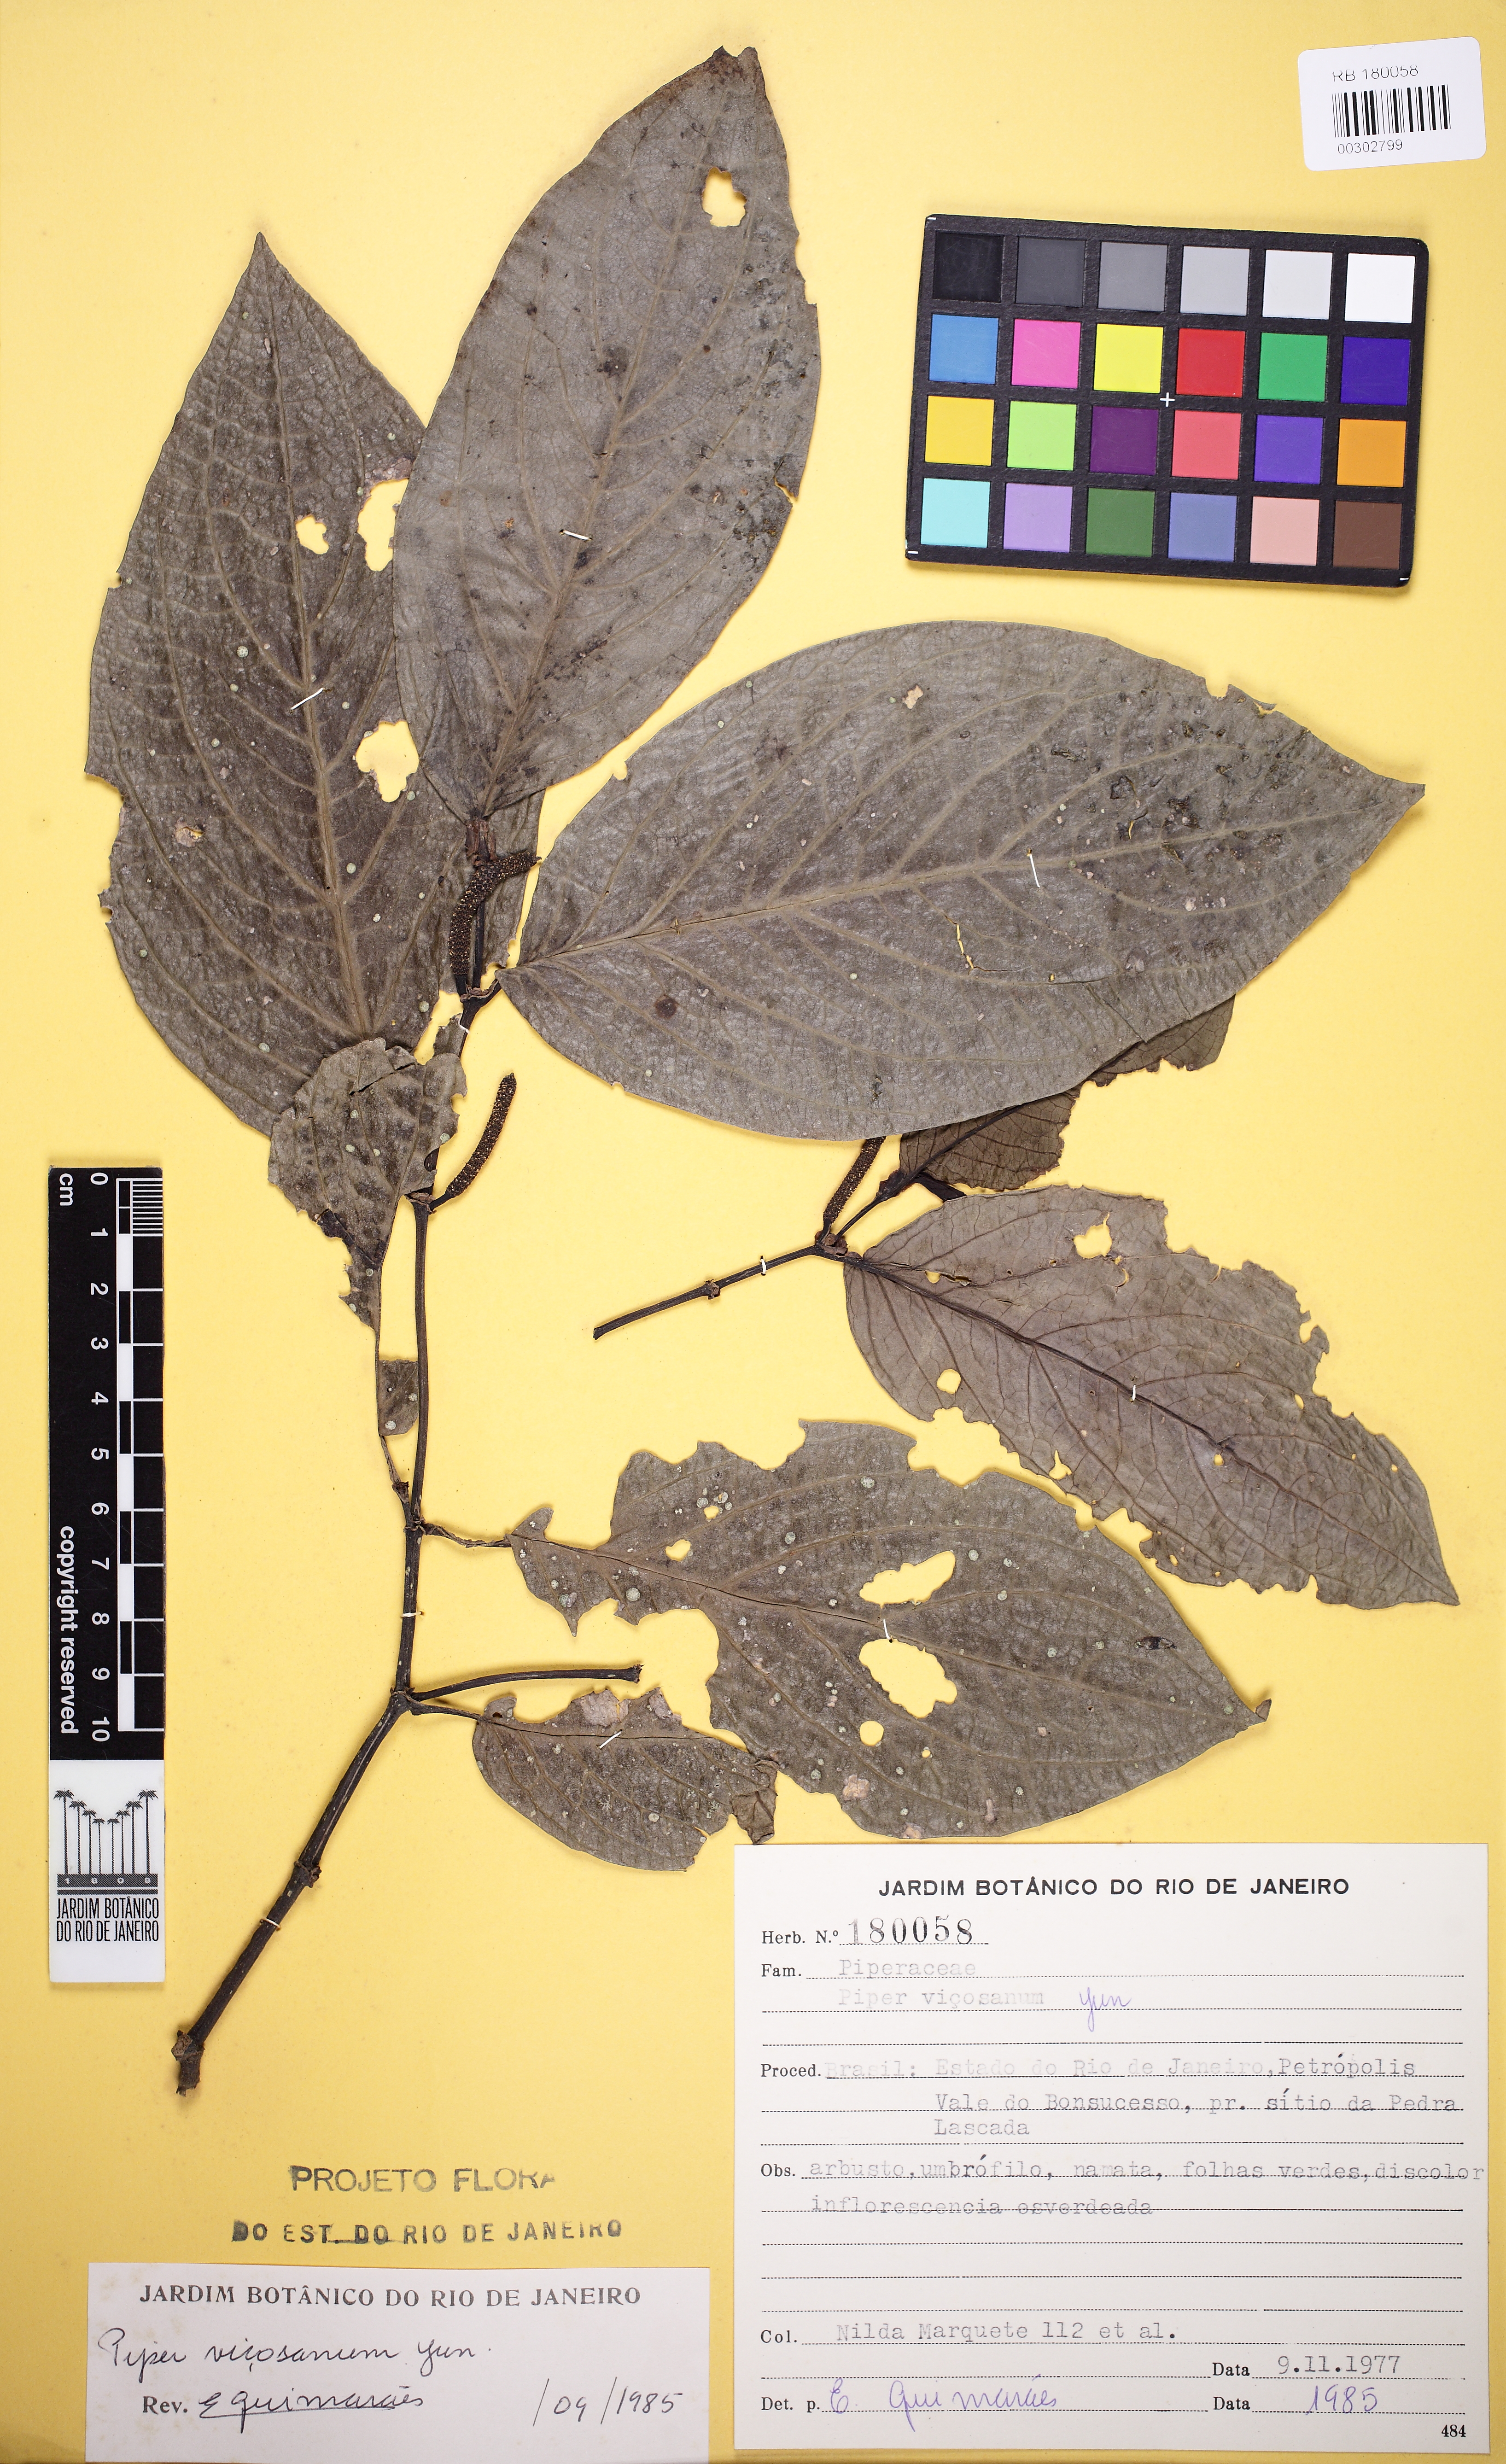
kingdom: Plantae
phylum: Tracheophyta
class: Magnoliopsida
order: Piperales
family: Piperaceae
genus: Piper
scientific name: Piper vicosanum
